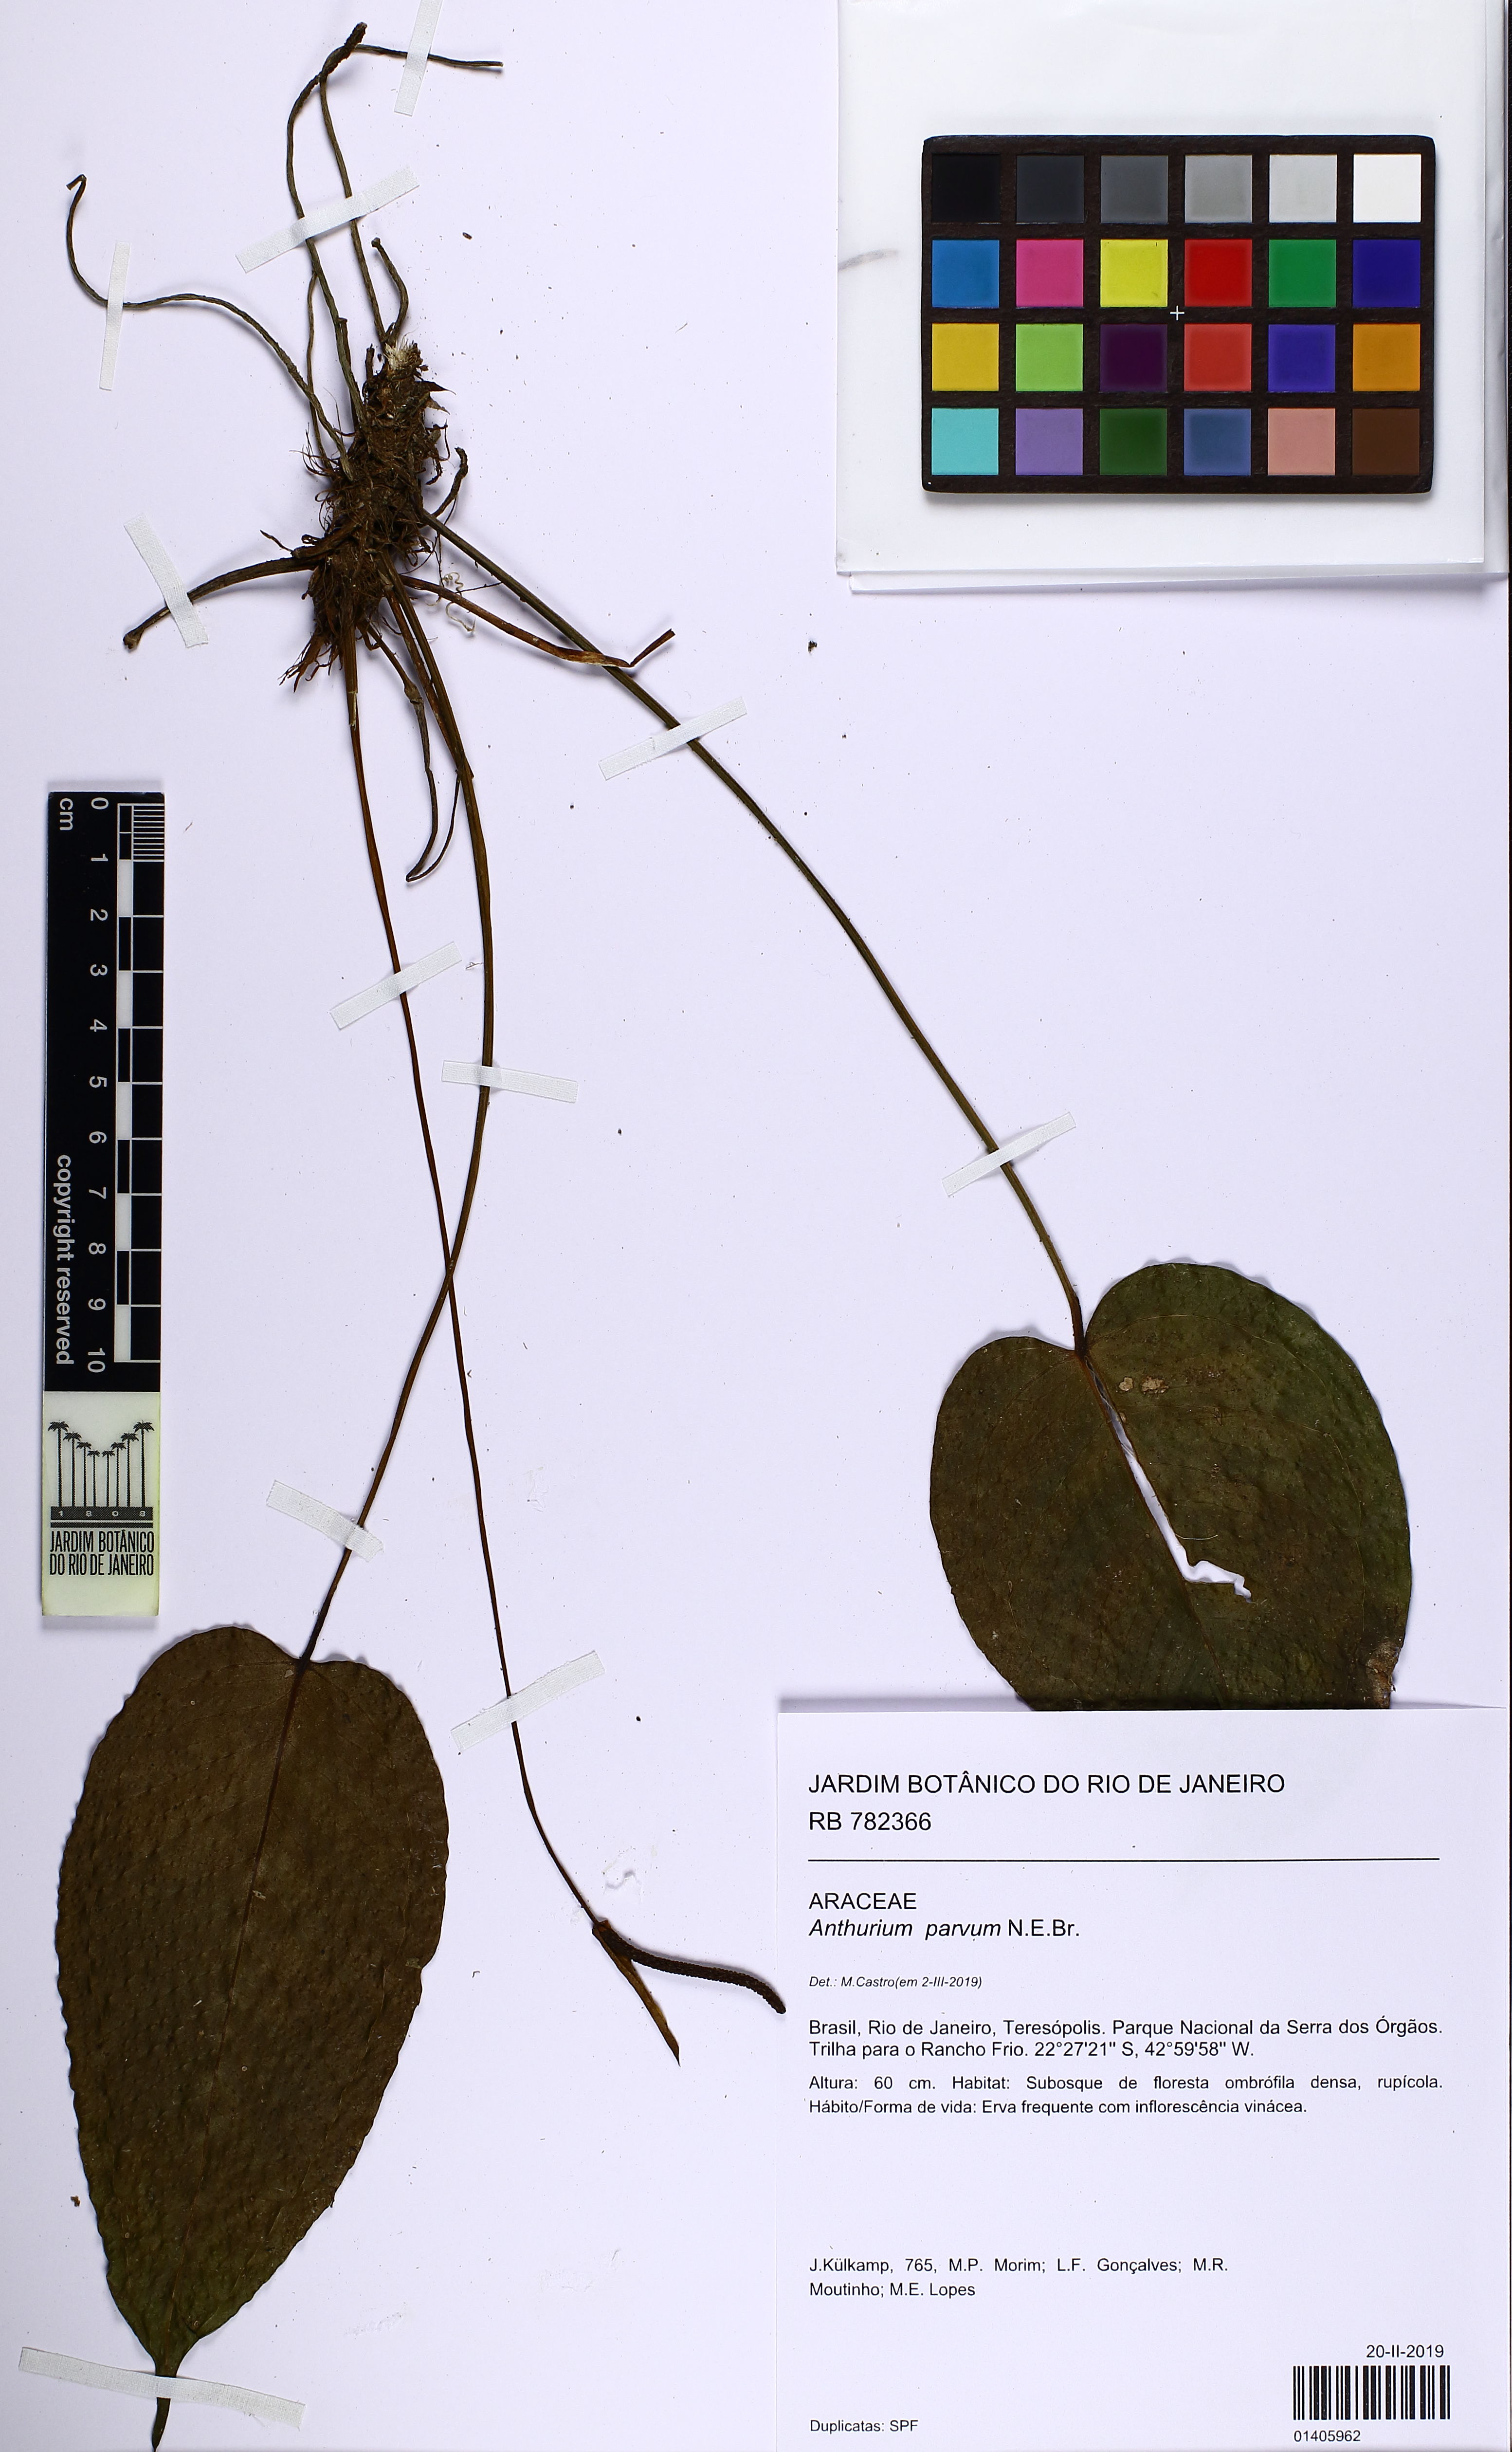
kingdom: Plantae
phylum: Tracheophyta
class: Liliopsida
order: Alismatales
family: Araceae
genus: Anthurium
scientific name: Anthurium parvum
